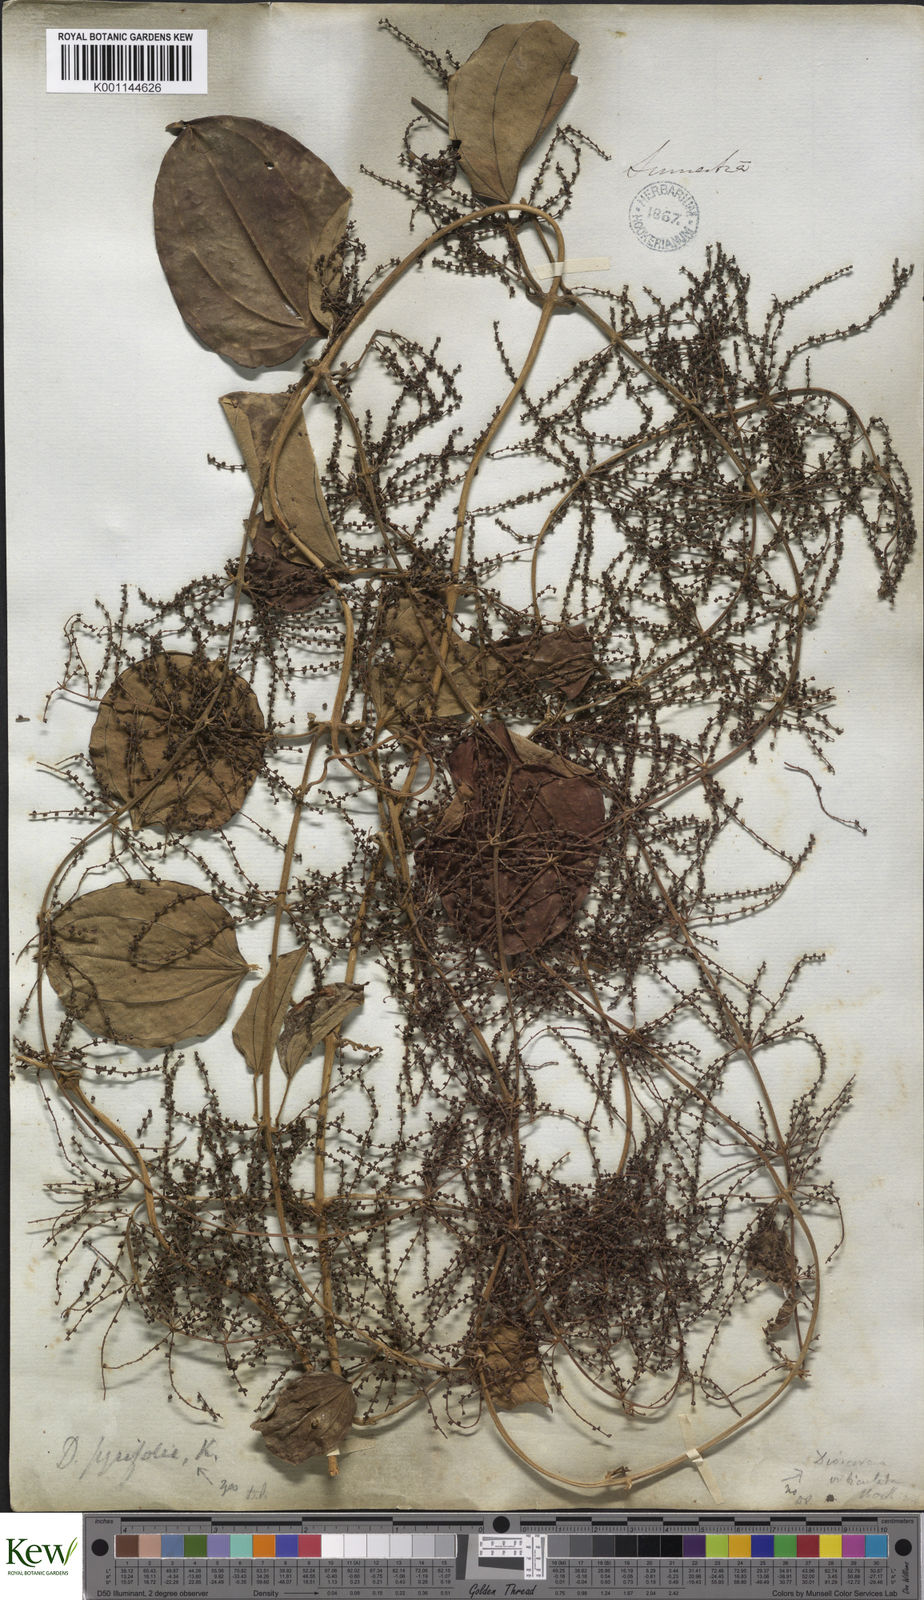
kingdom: Plantae
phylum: Tracheophyta
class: Liliopsida
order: Dioscoreales
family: Dioscoreaceae
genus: Dioscorea
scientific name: Dioscorea pyrifolia
